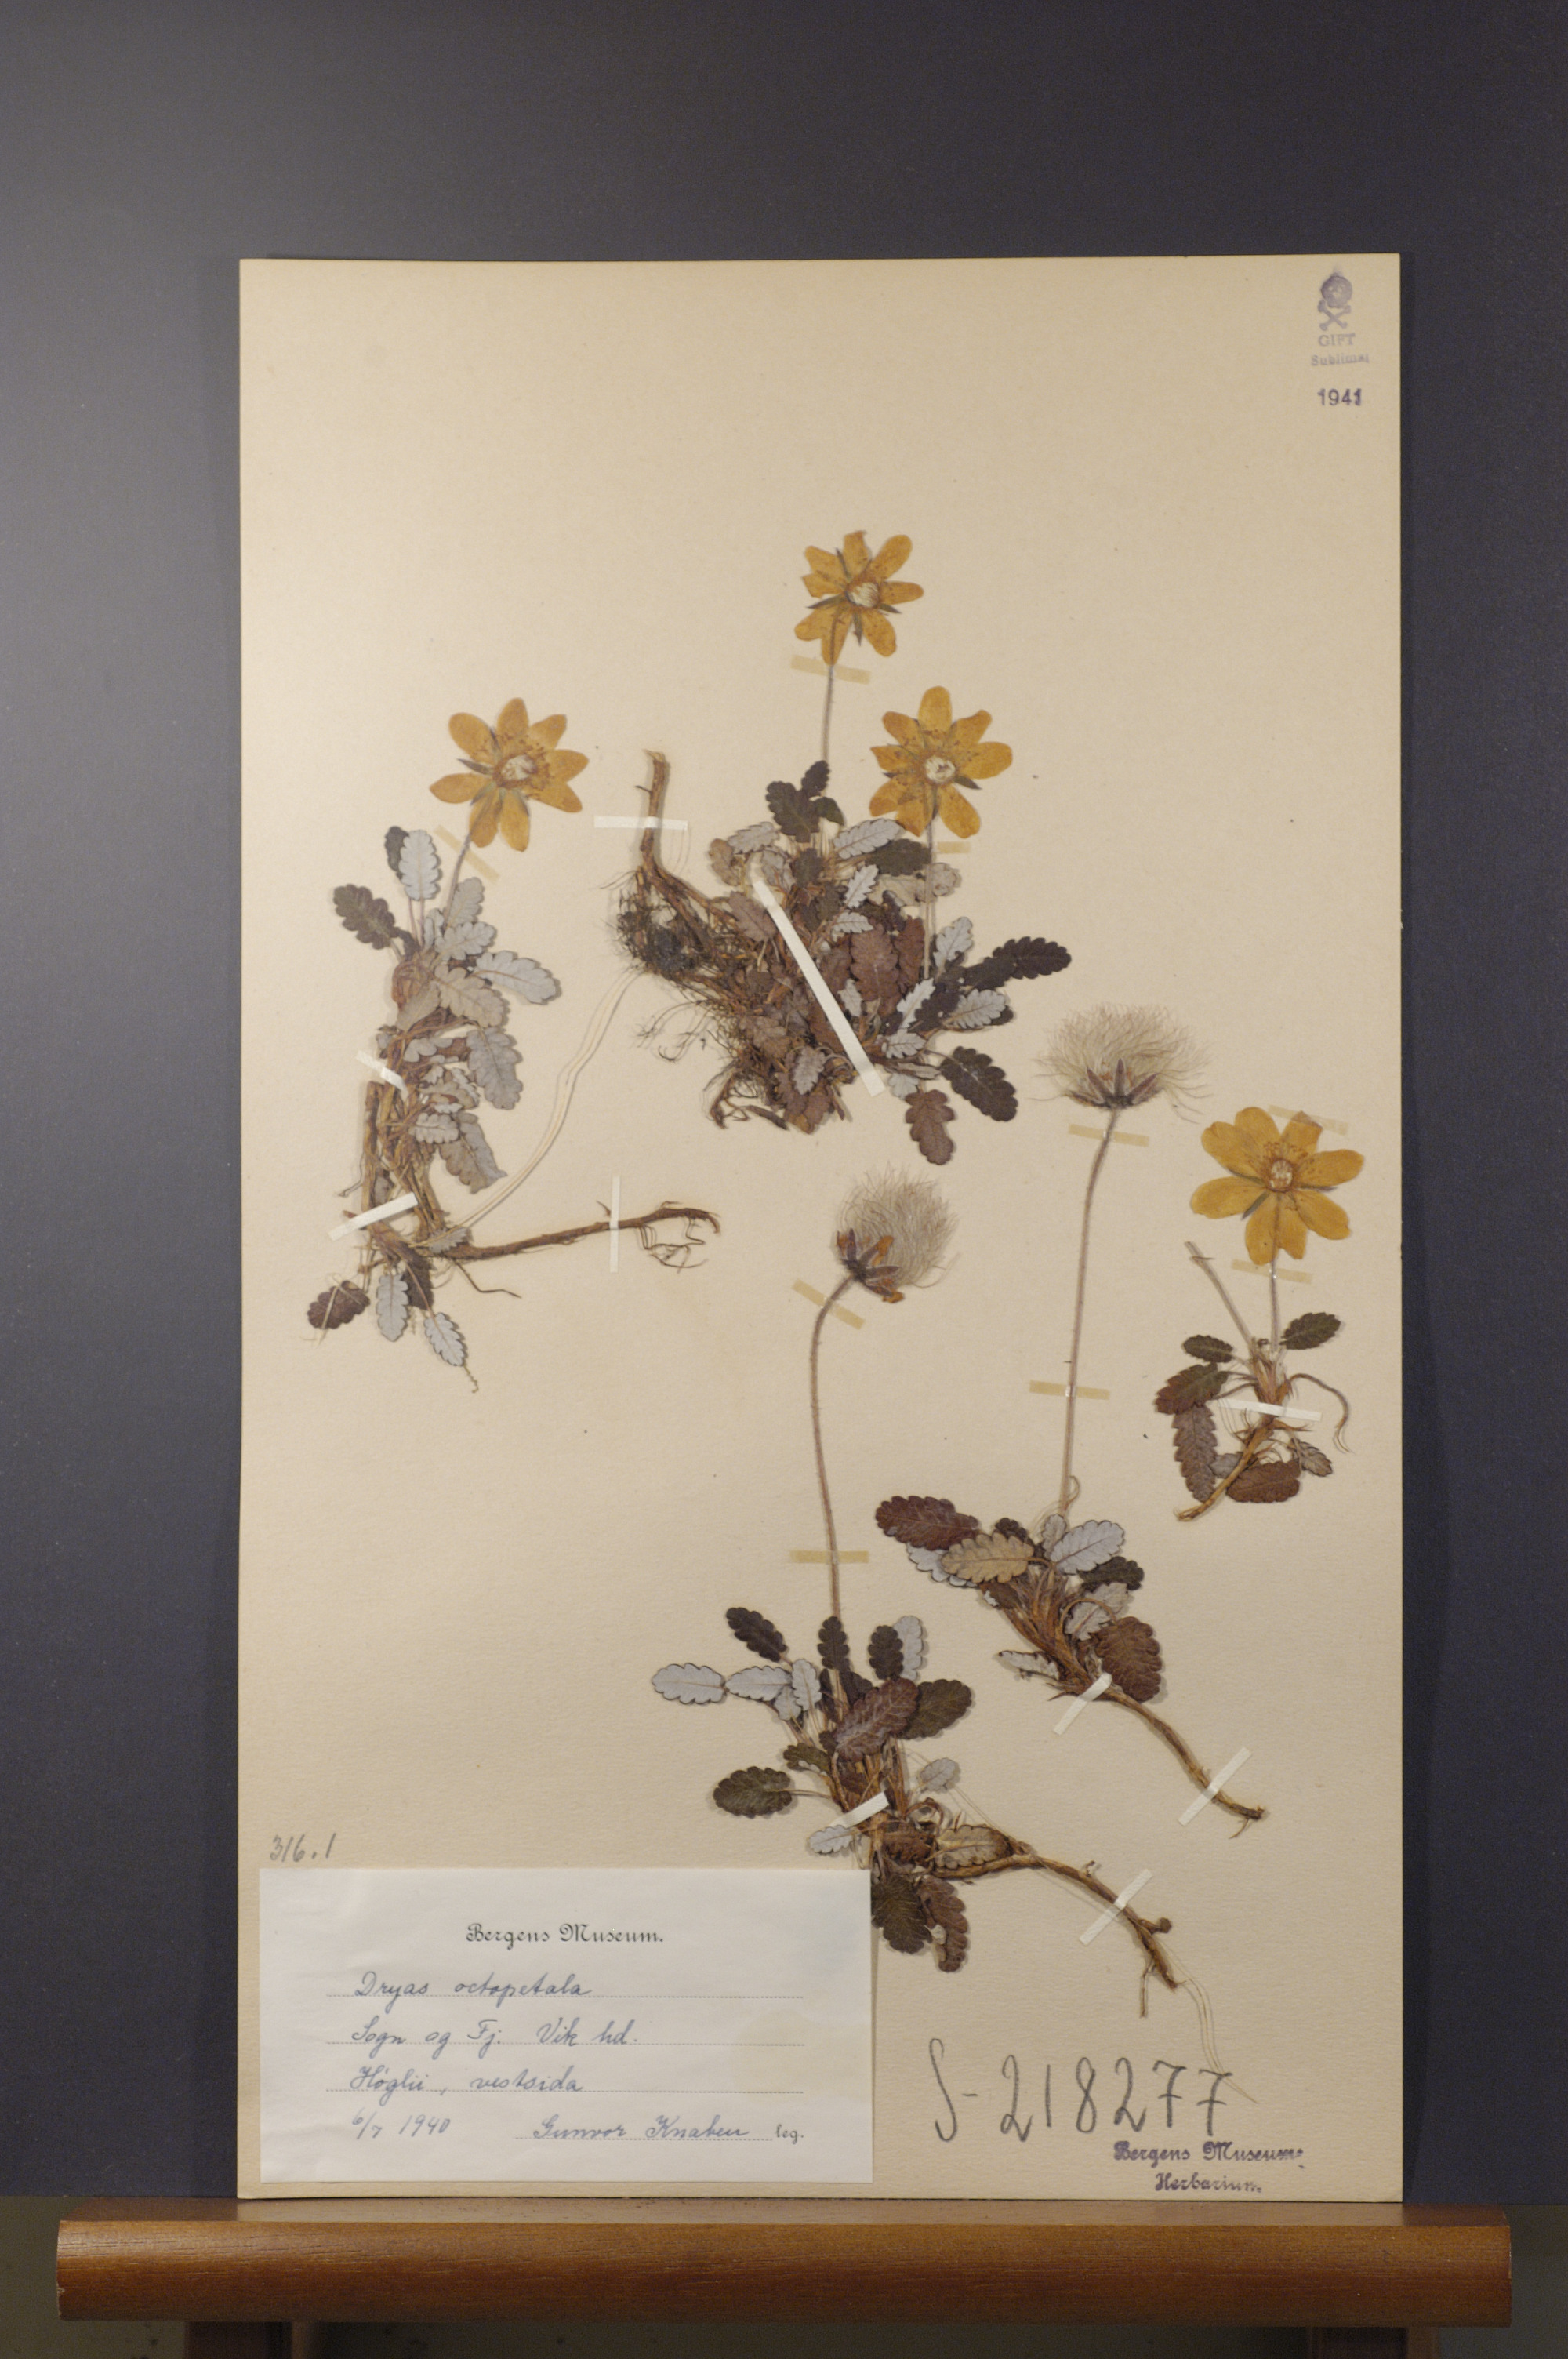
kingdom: Plantae
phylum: Tracheophyta
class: Magnoliopsida
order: Rosales
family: Rosaceae
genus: Dryas
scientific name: Dryas octopetala
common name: Eight-petal mountain-avens
